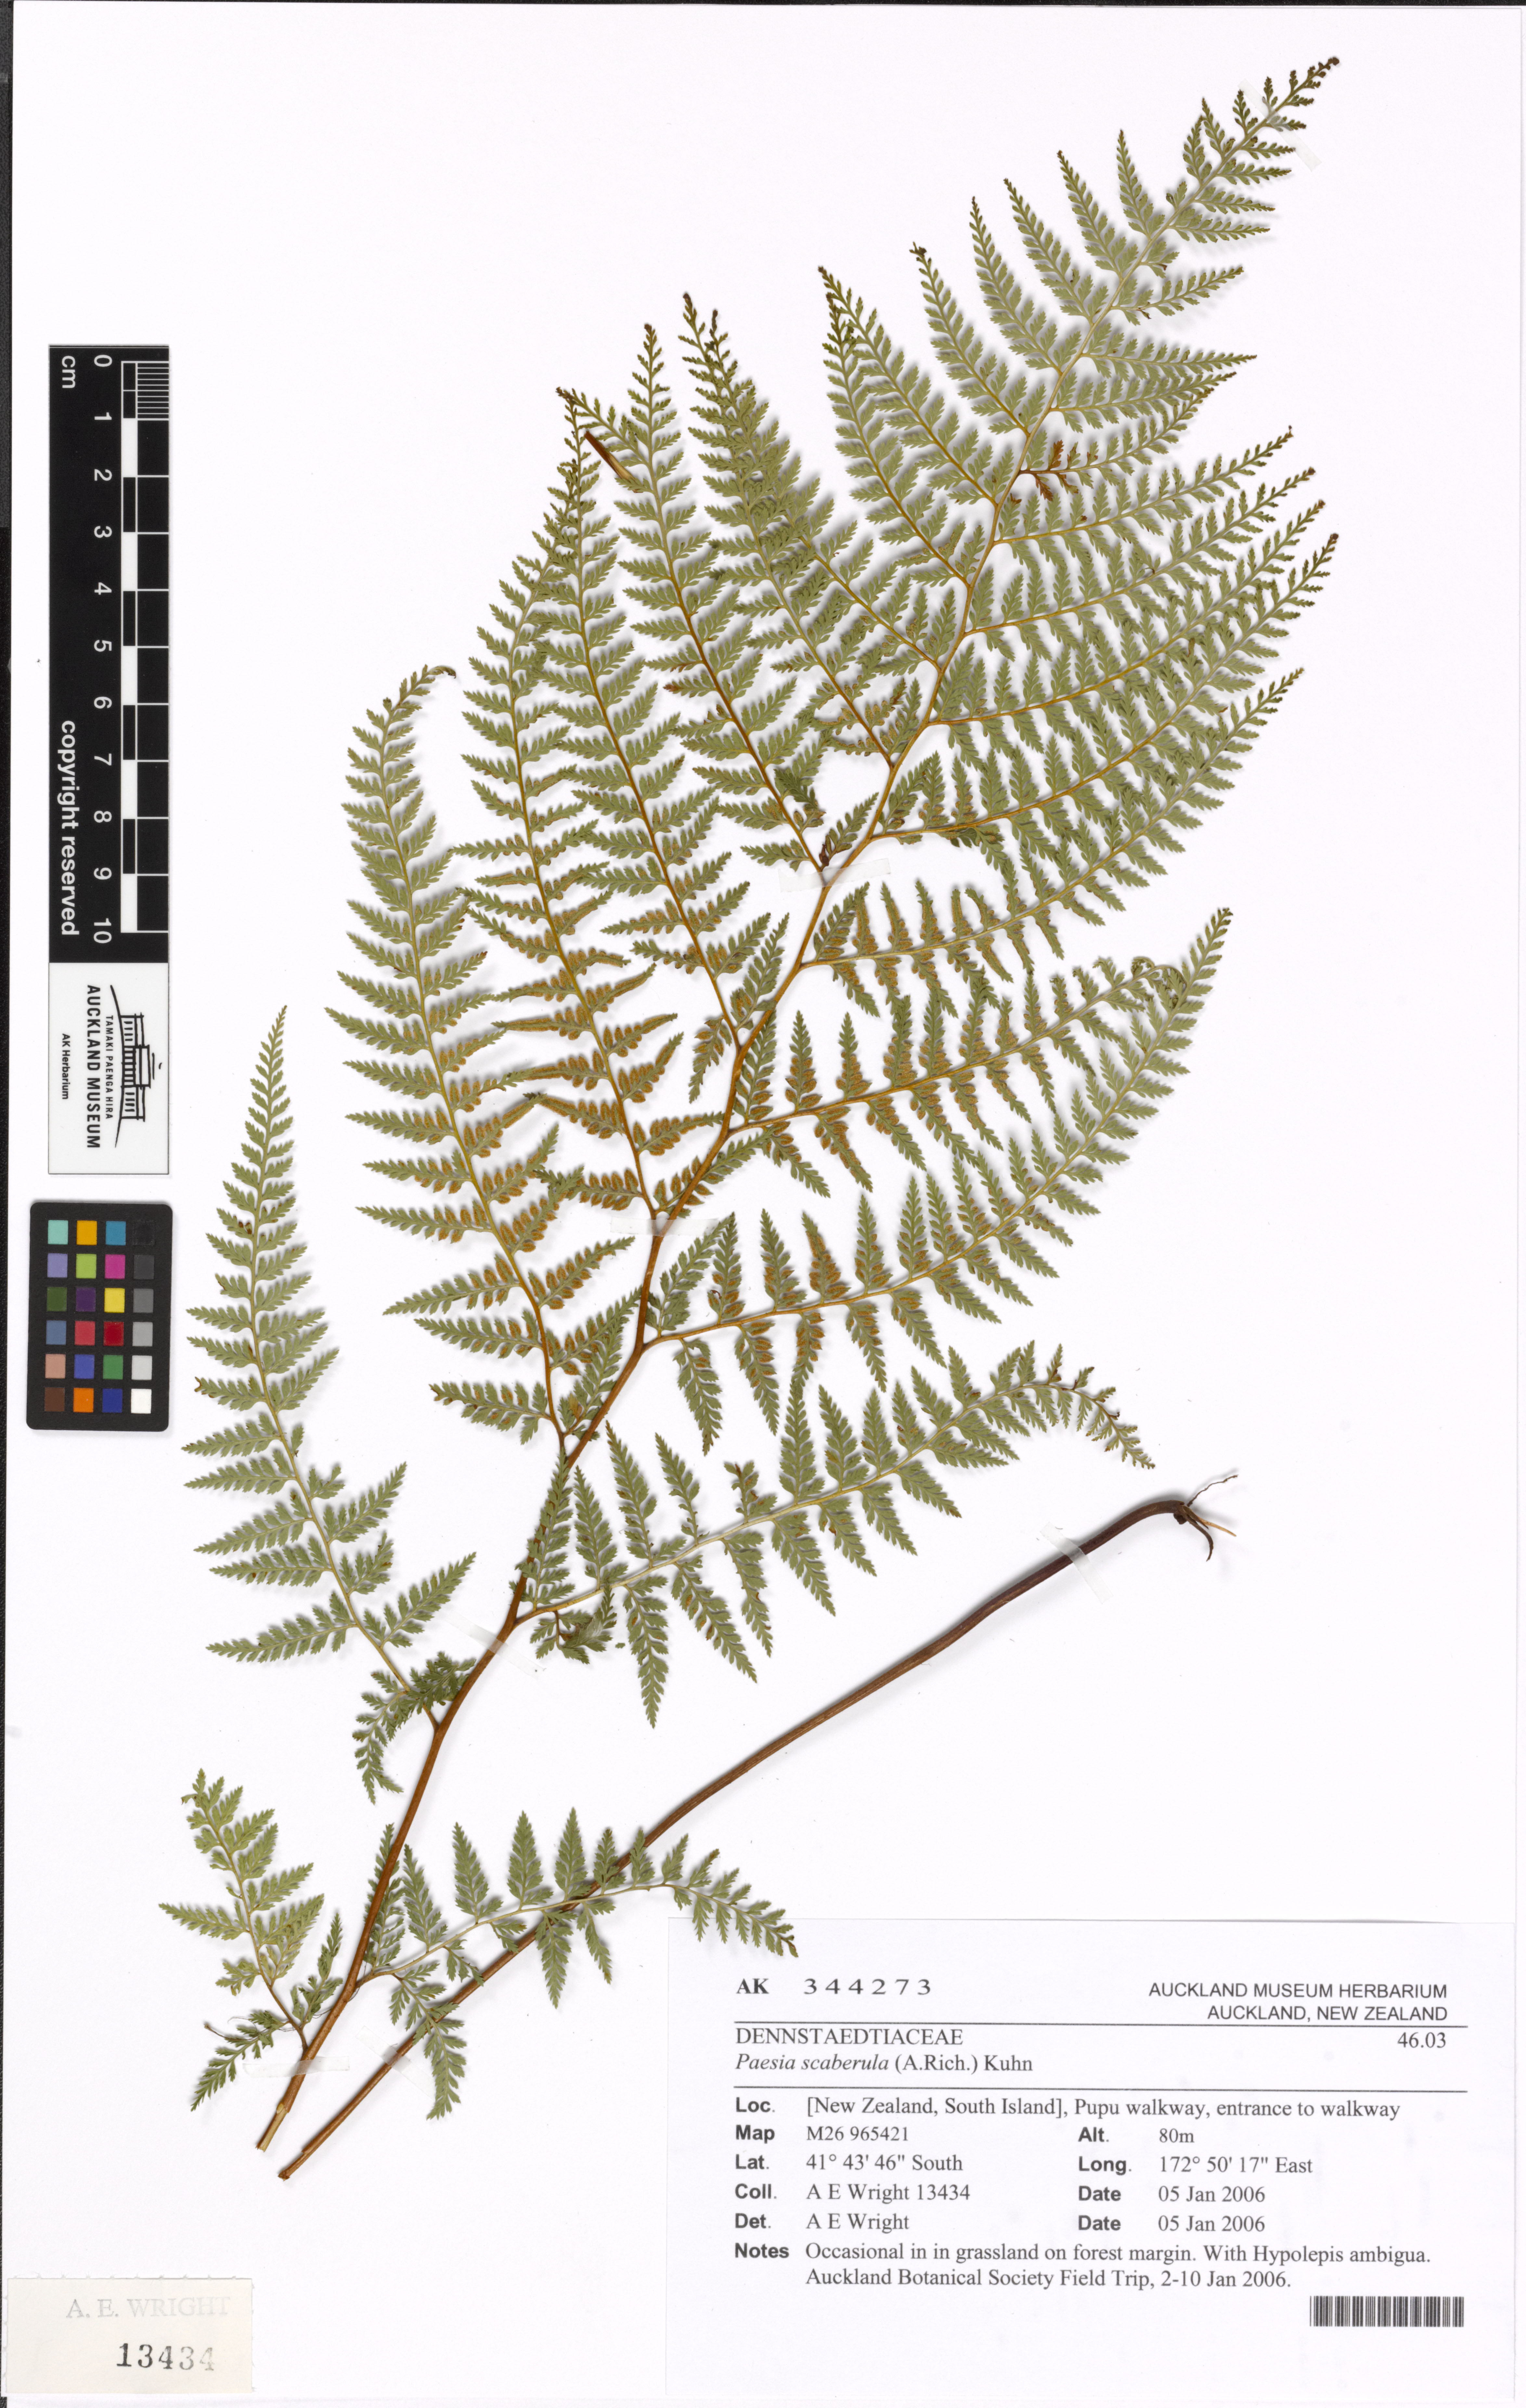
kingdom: Plantae
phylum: Tracheophyta
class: Polypodiopsida
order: Polypodiales
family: Dennstaedtiaceae
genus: Paesia
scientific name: Paesia scaberula
